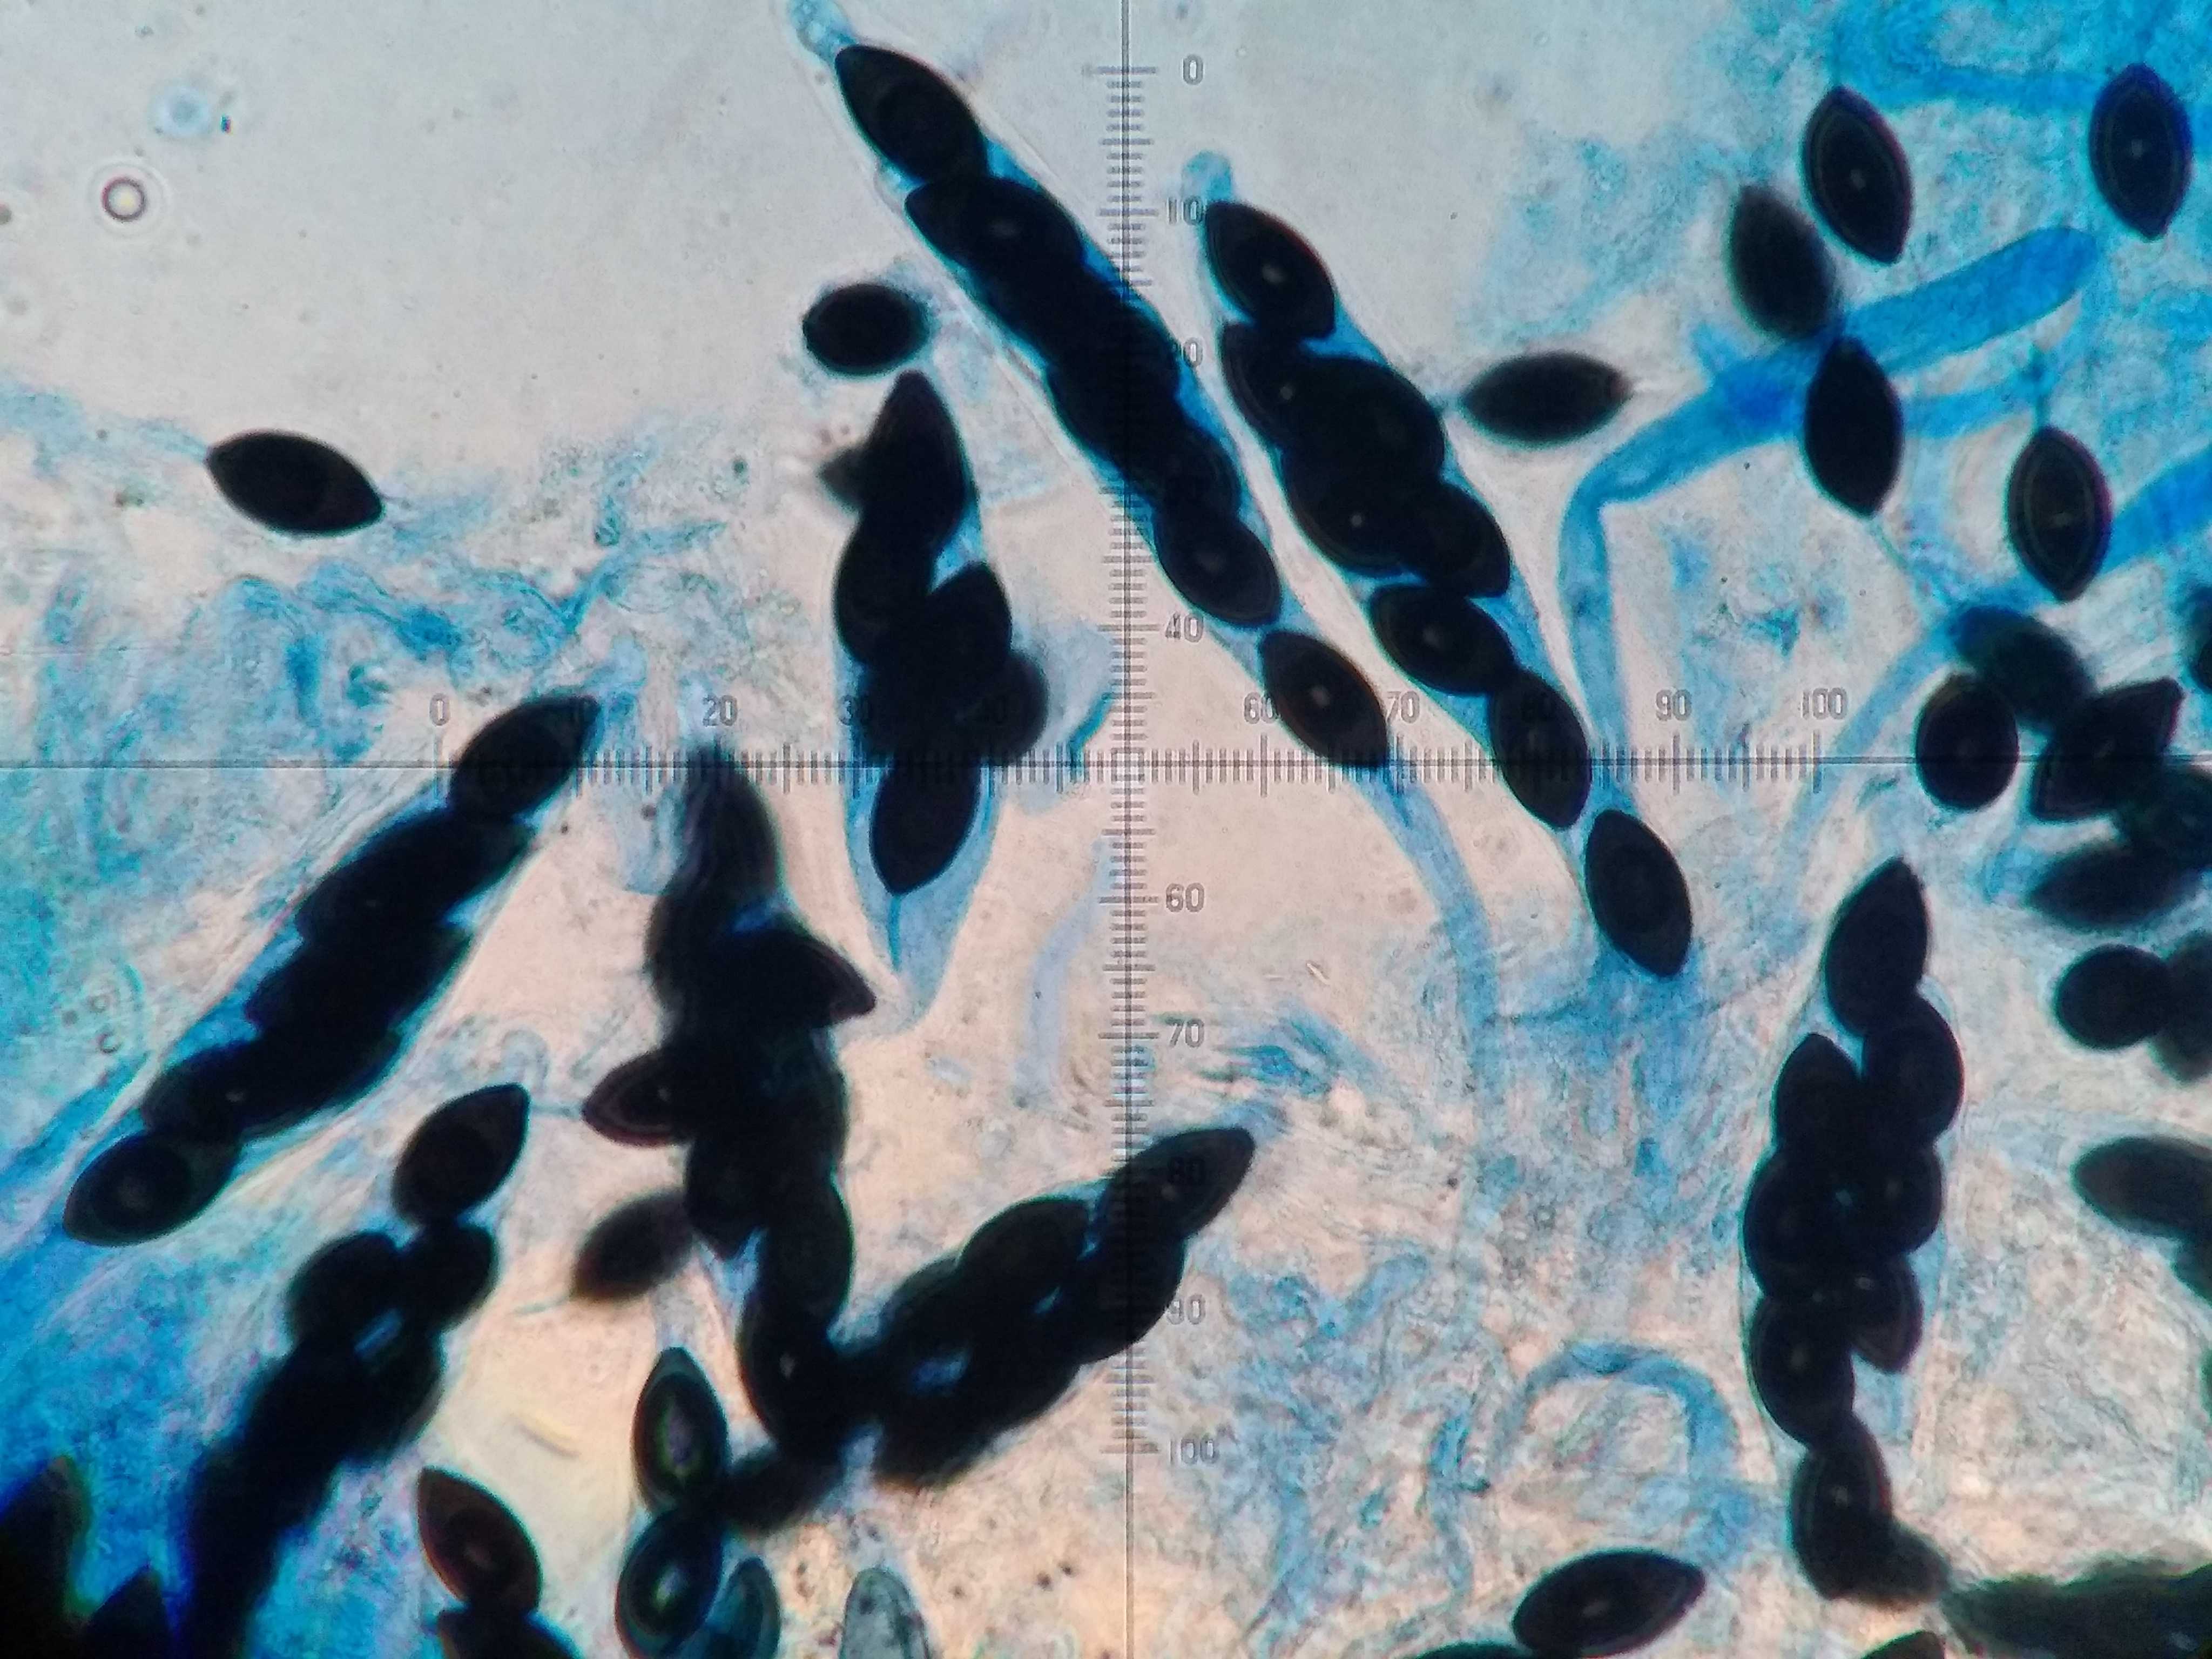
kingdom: Fungi
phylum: Ascomycota
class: Sordariomycetes
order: Sordariales
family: Podosporaceae
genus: Podospora
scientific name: Podospora
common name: kernesvamp
